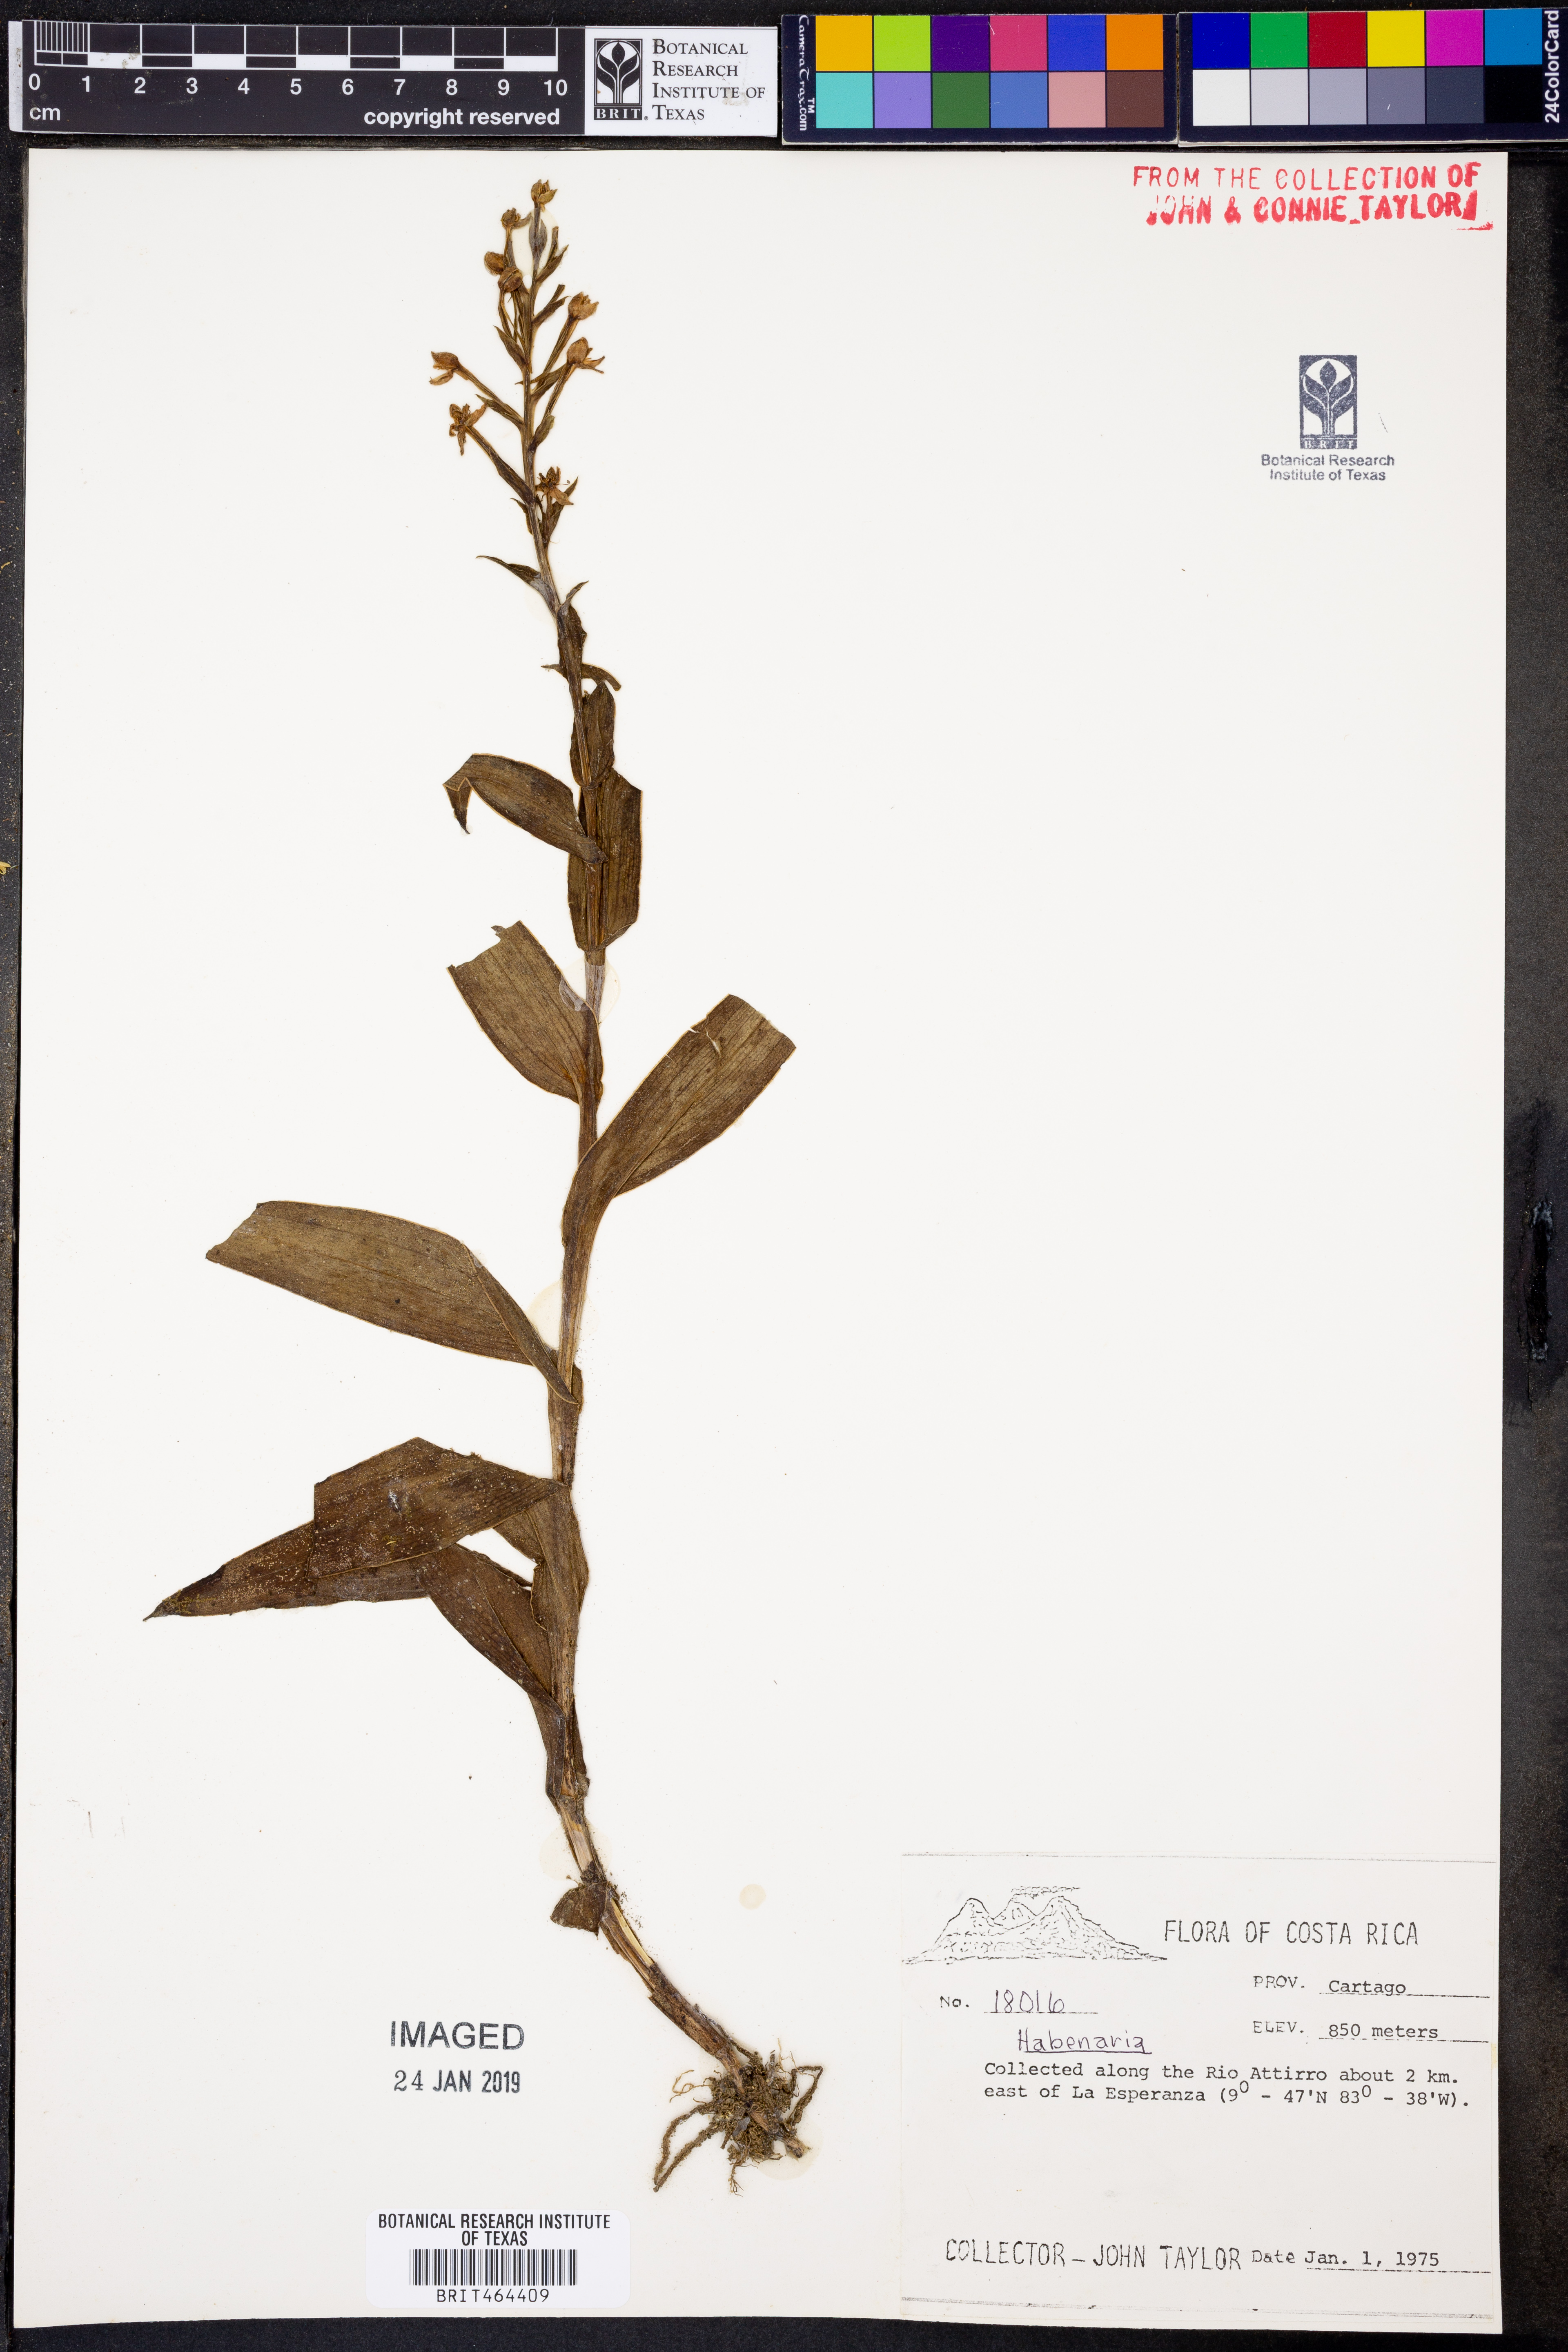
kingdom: Plantae
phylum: Tracheophyta
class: Liliopsida
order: Asparagales
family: Orchidaceae
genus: Habenaria
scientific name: Habenaria
